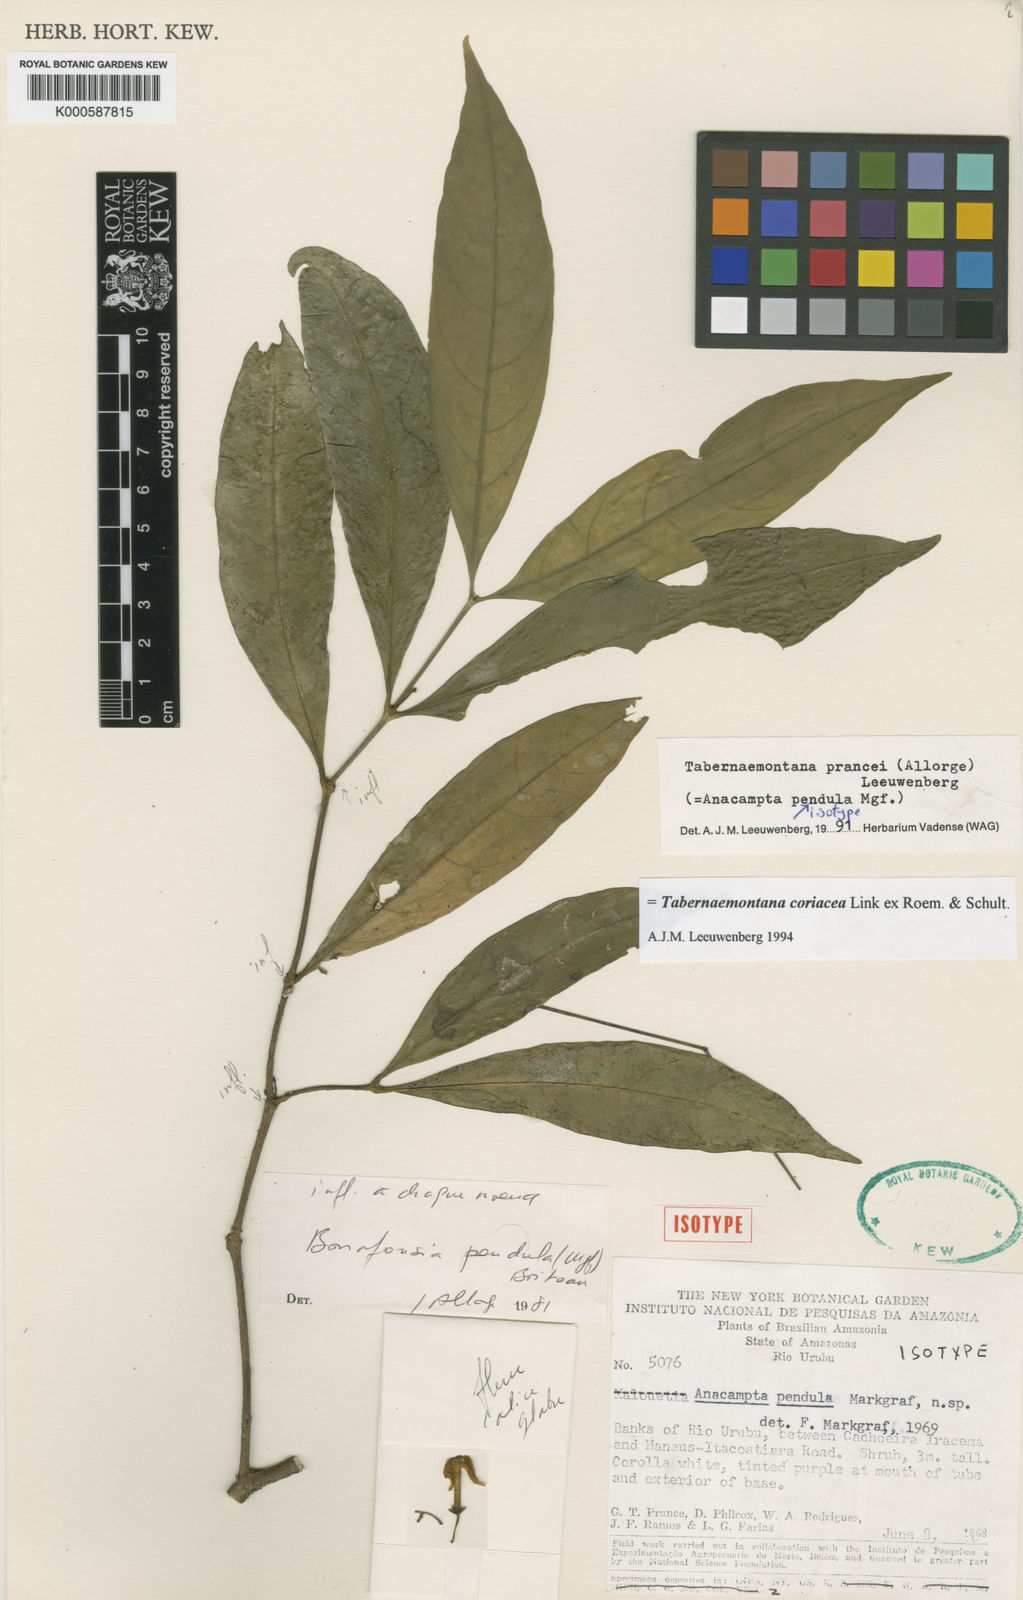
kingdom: Plantae
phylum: Tracheophyta
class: Magnoliopsida
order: Gentianales
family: Apocynaceae
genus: Tabernaemontana
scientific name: Tabernaemontana coriacea
